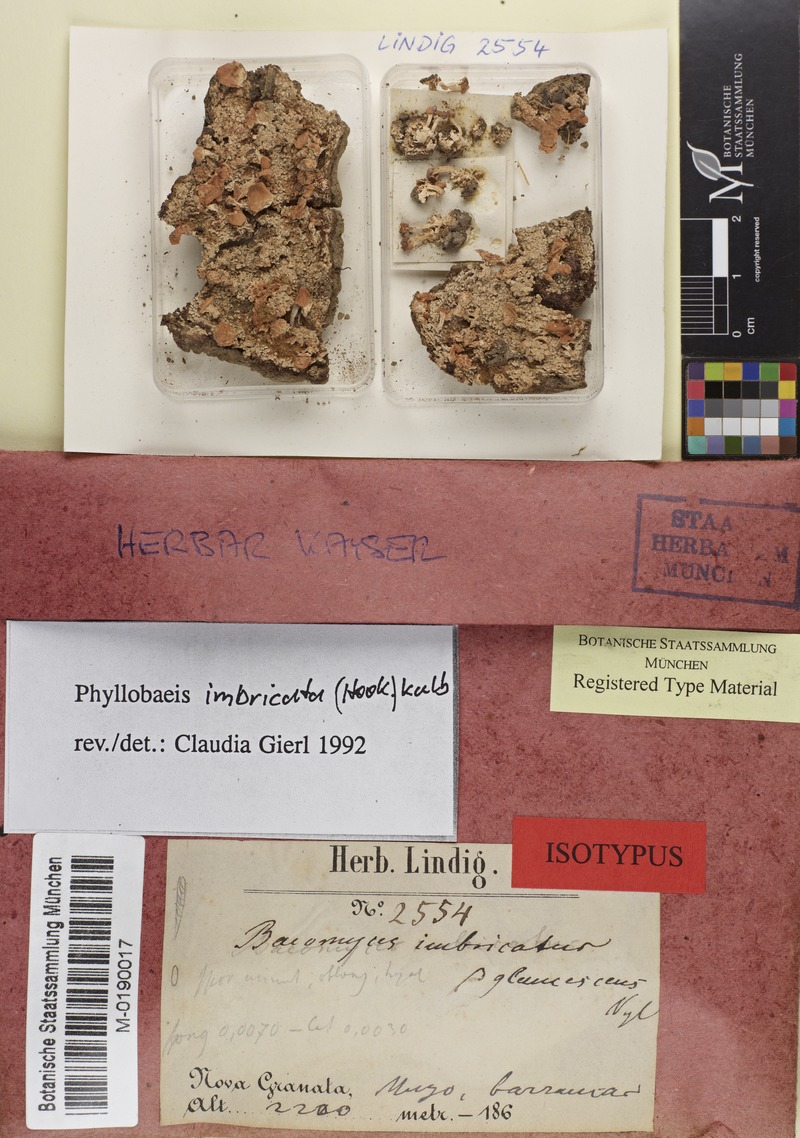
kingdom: Fungi
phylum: Ascomycota
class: Lecanoromycetes
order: Baeomycetales
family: Baeomycetaceae
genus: Phyllobaeis
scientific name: Phyllobaeis imbricata
